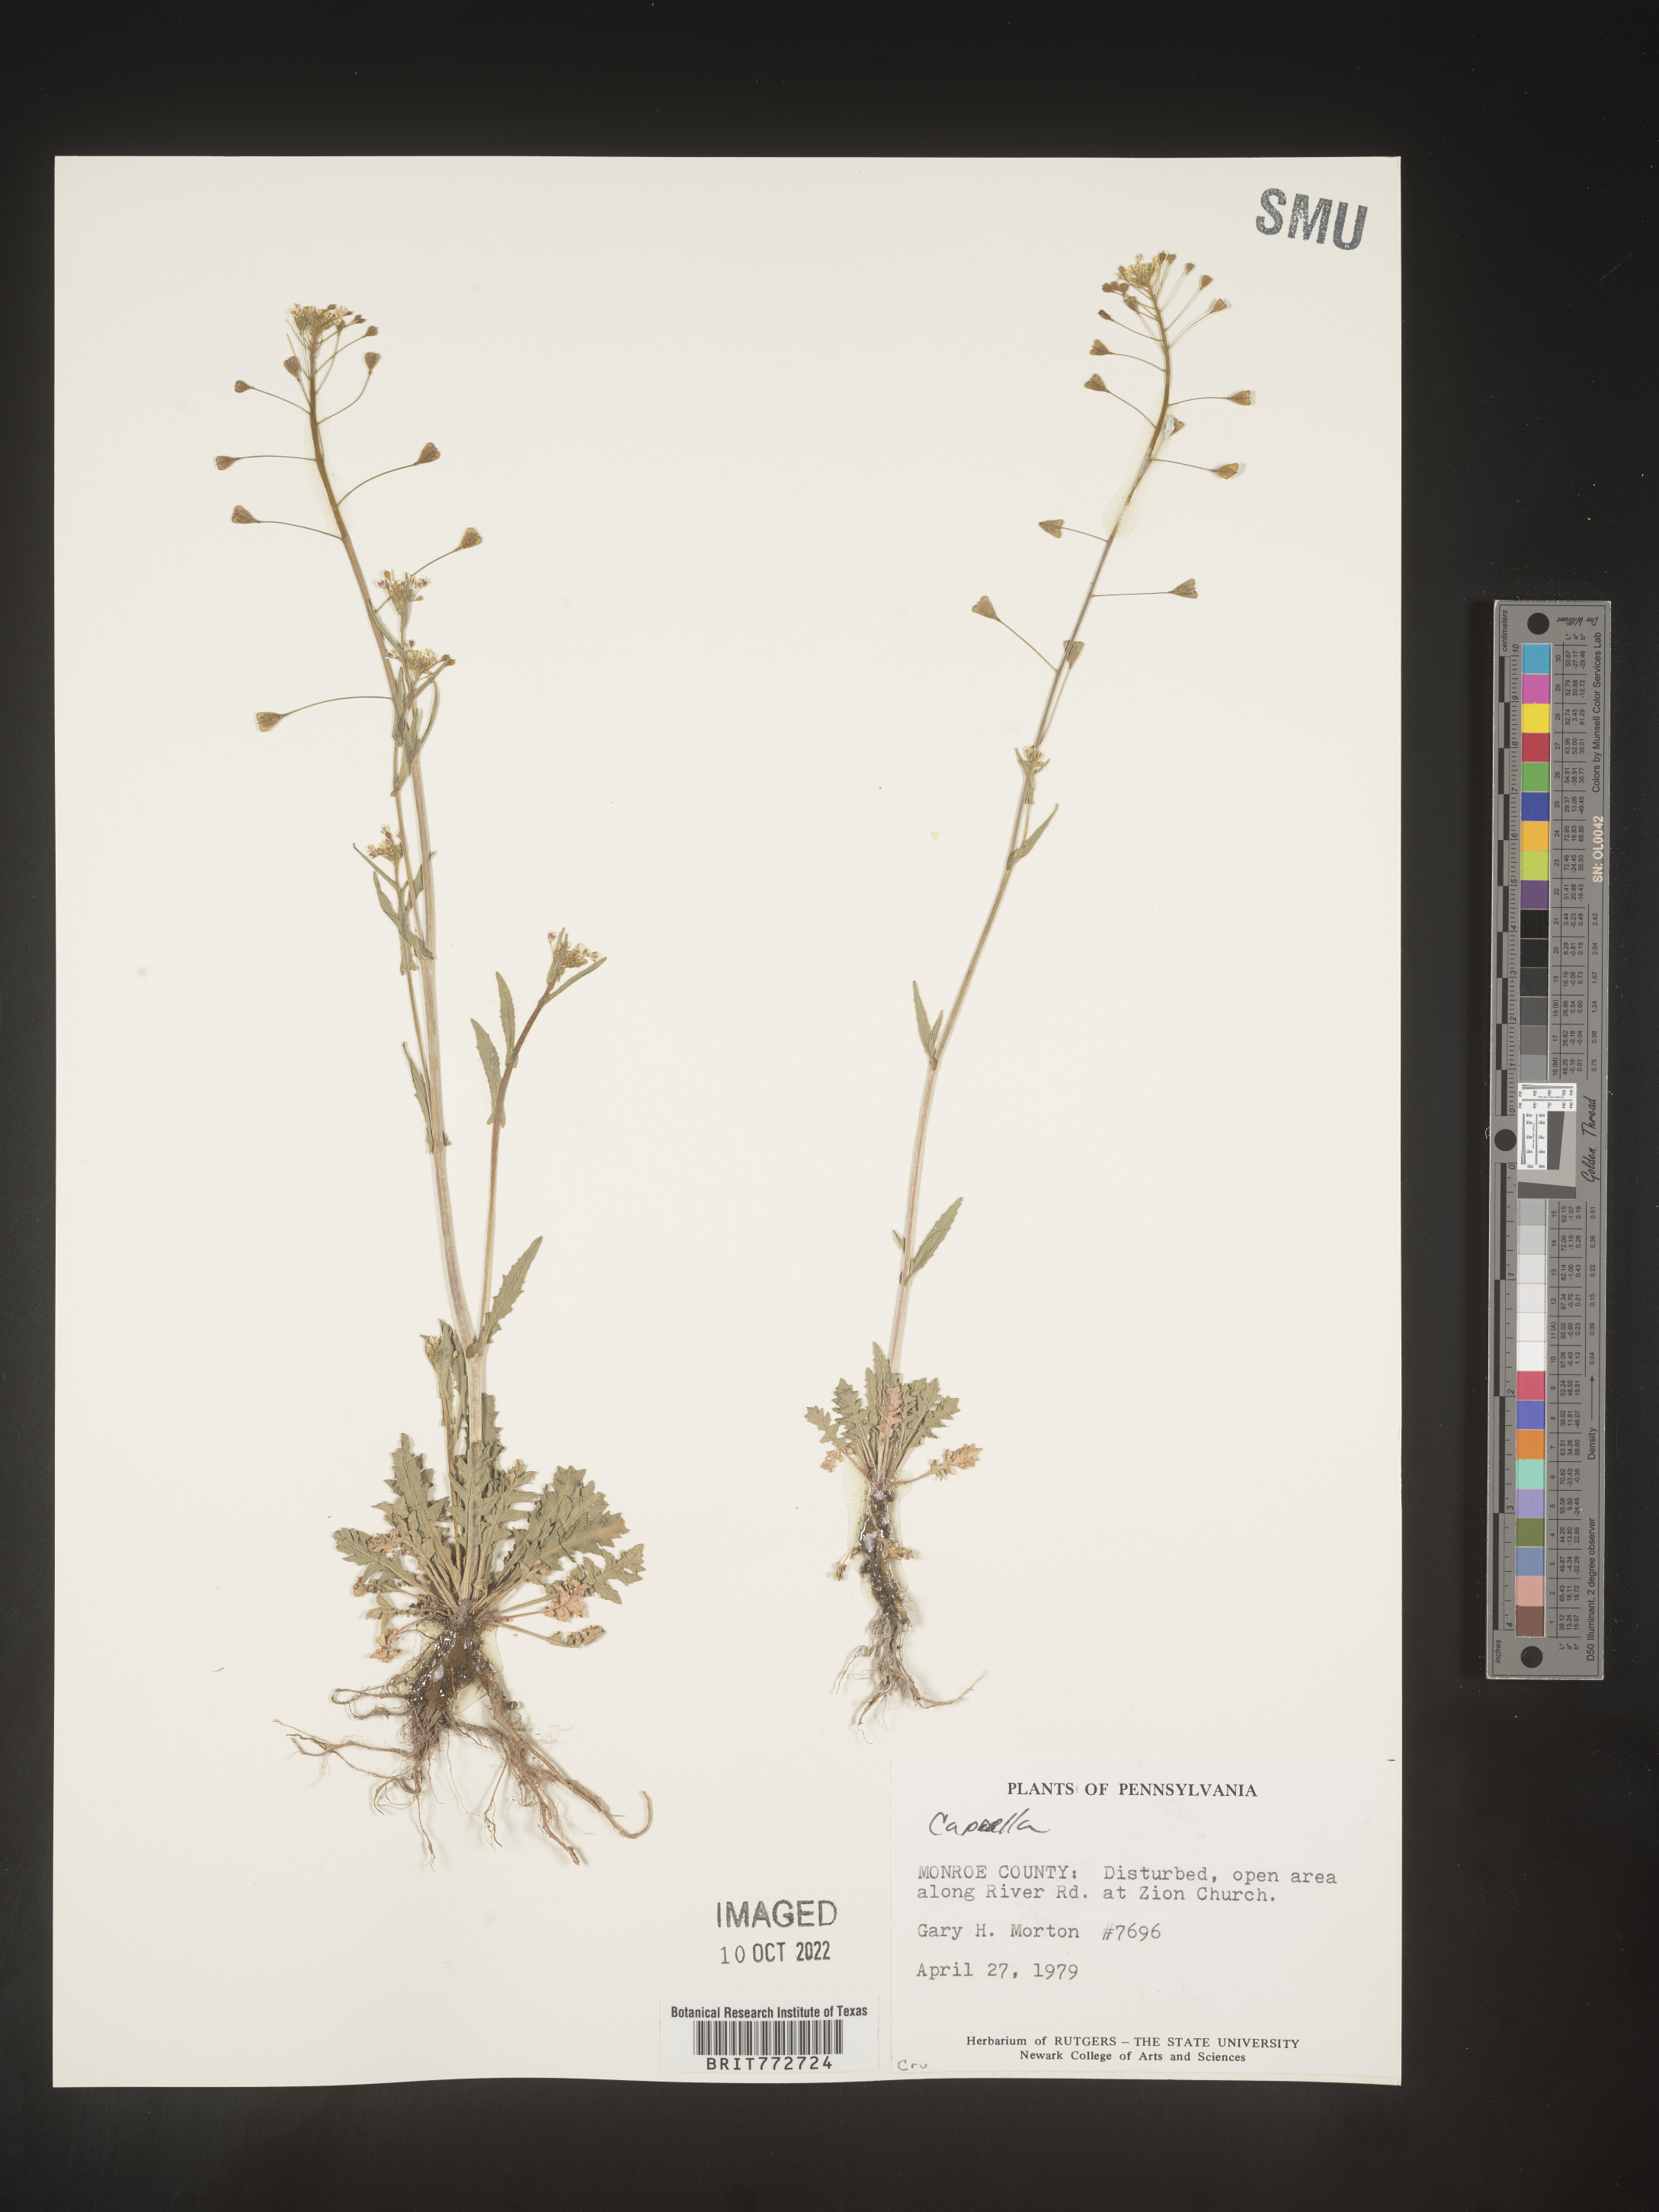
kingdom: Plantae
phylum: Tracheophyta
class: Magnoliopsida
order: Brassicales
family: Brassicaceae
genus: Capsella
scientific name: Capsella bursa-pastoris
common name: Shepherd's purse
